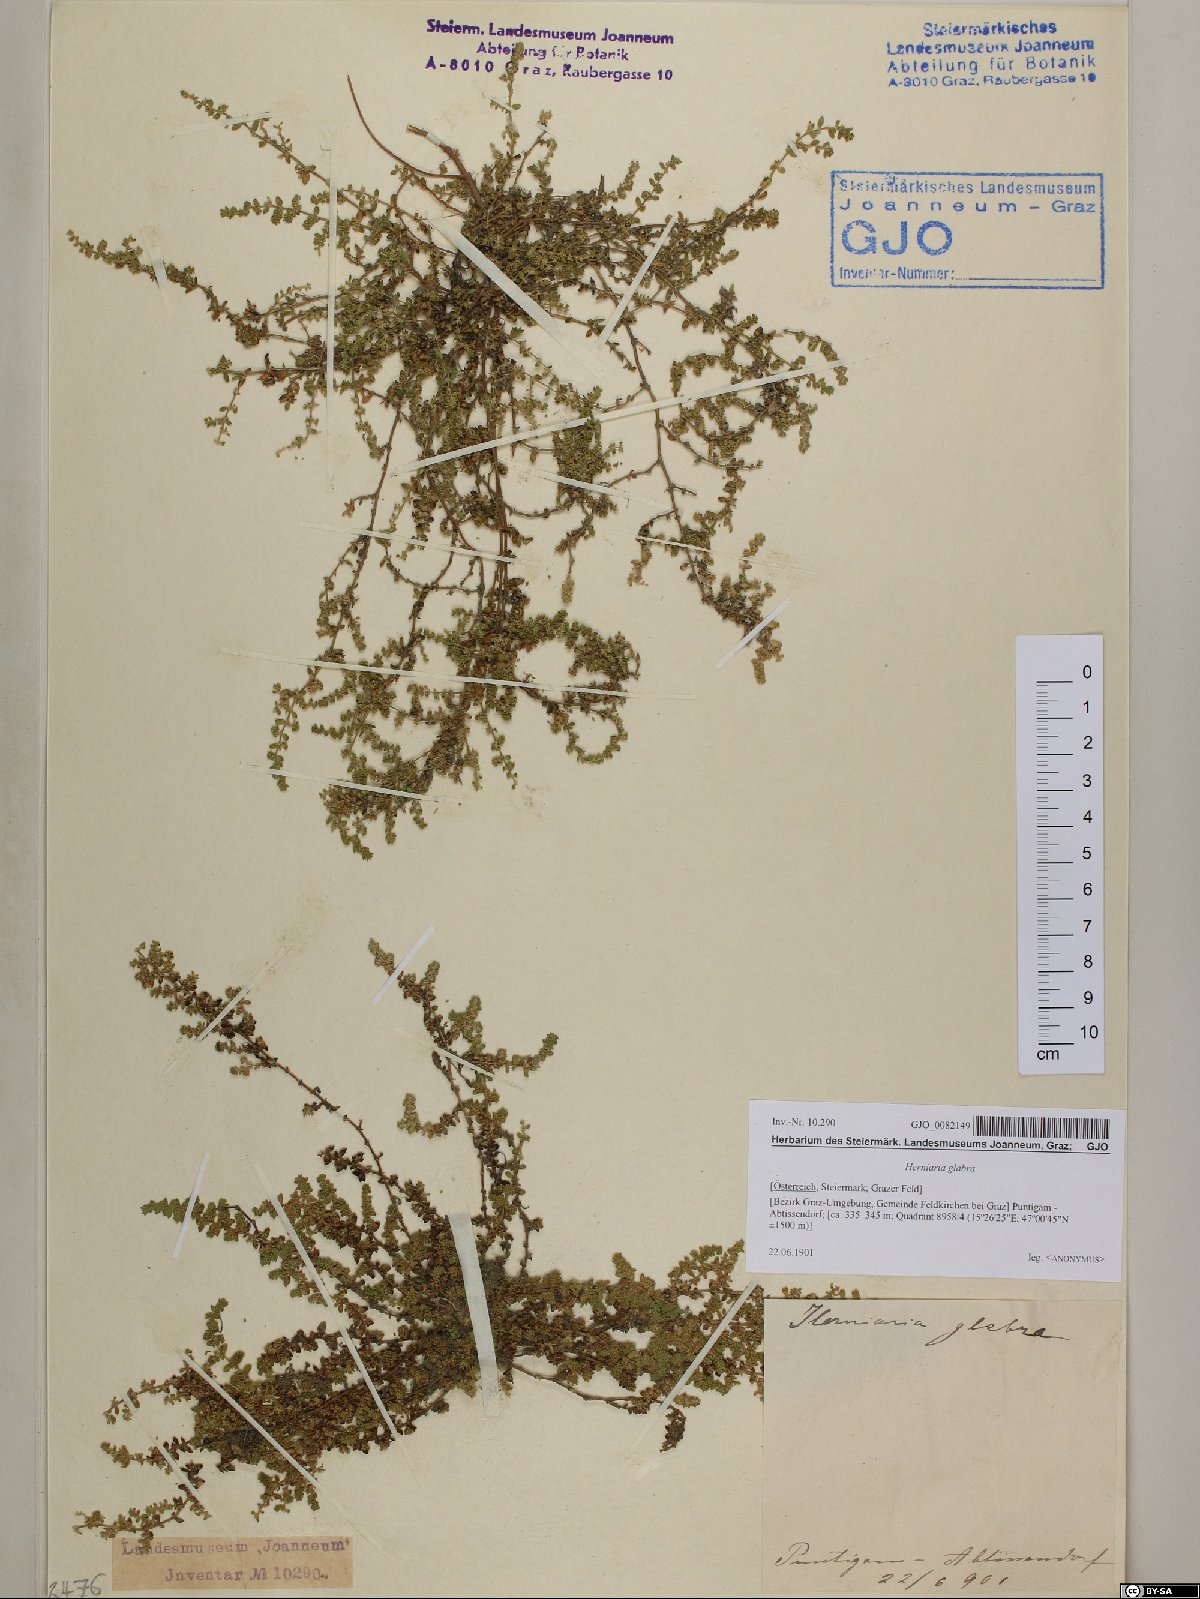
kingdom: Plantae
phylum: Tracheophyta
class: Magnoliopsida
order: Caryophyllales
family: Caryophyllaceae
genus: Herniaria
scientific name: Herniaria glabra
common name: Smooth rupturewort
